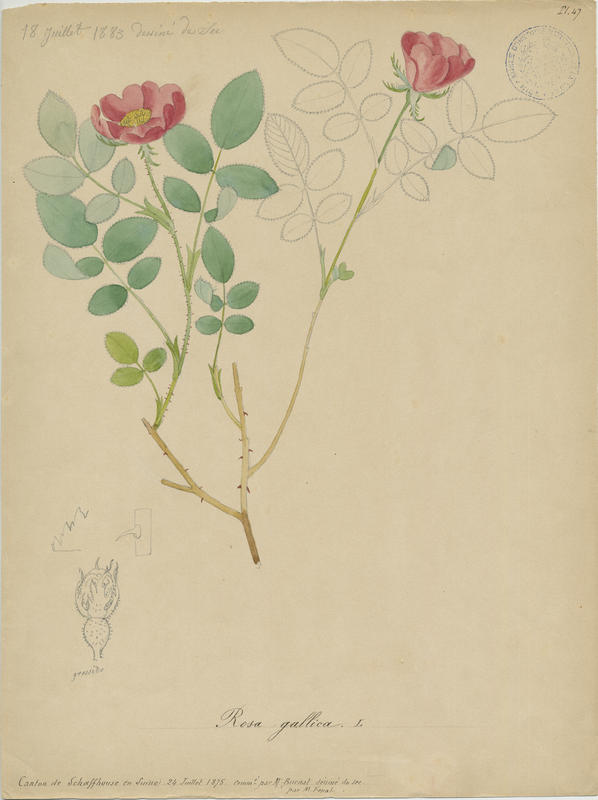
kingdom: Plantae
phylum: Tracheophyta
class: Magnoliopsida
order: Rosales
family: Rosaceae
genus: Rosa
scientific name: Rosa gallica
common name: French rose
